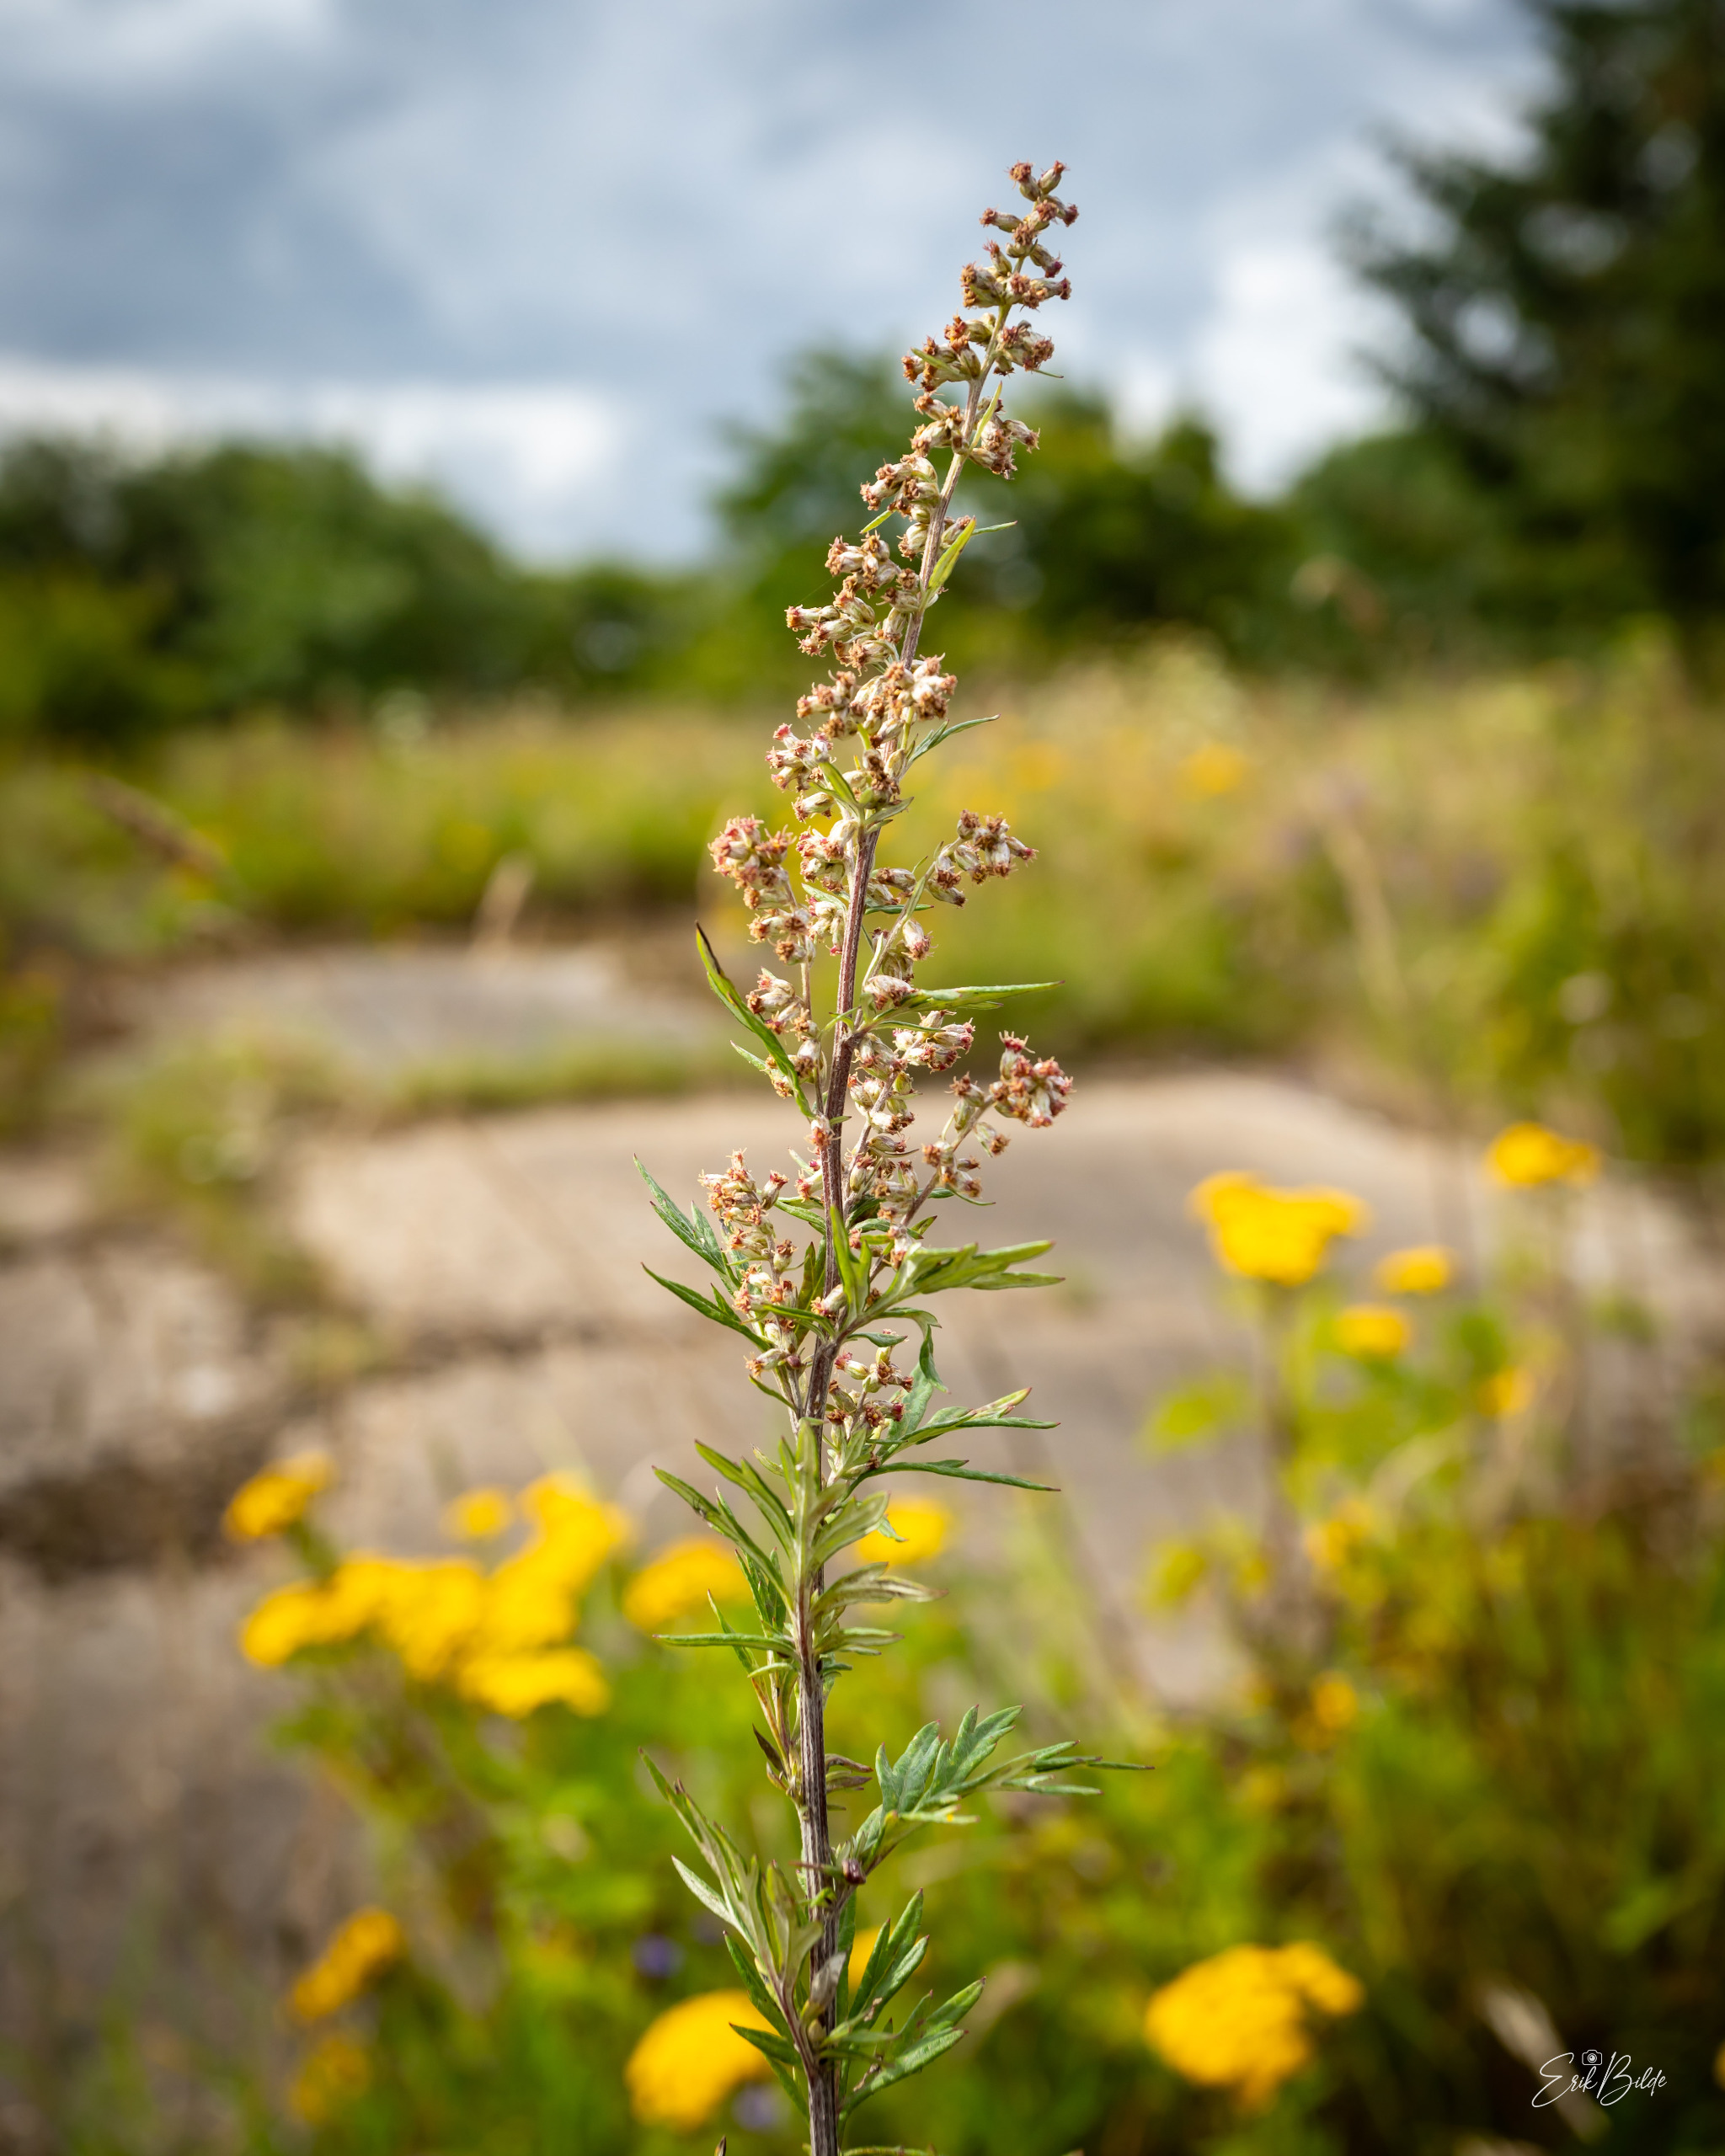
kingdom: Plantae
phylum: Tracheophyta
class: Magnoliopsida
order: Asterales
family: Asteraceae
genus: Artemisia
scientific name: Artemisia vulgaris
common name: Grå-bynke
